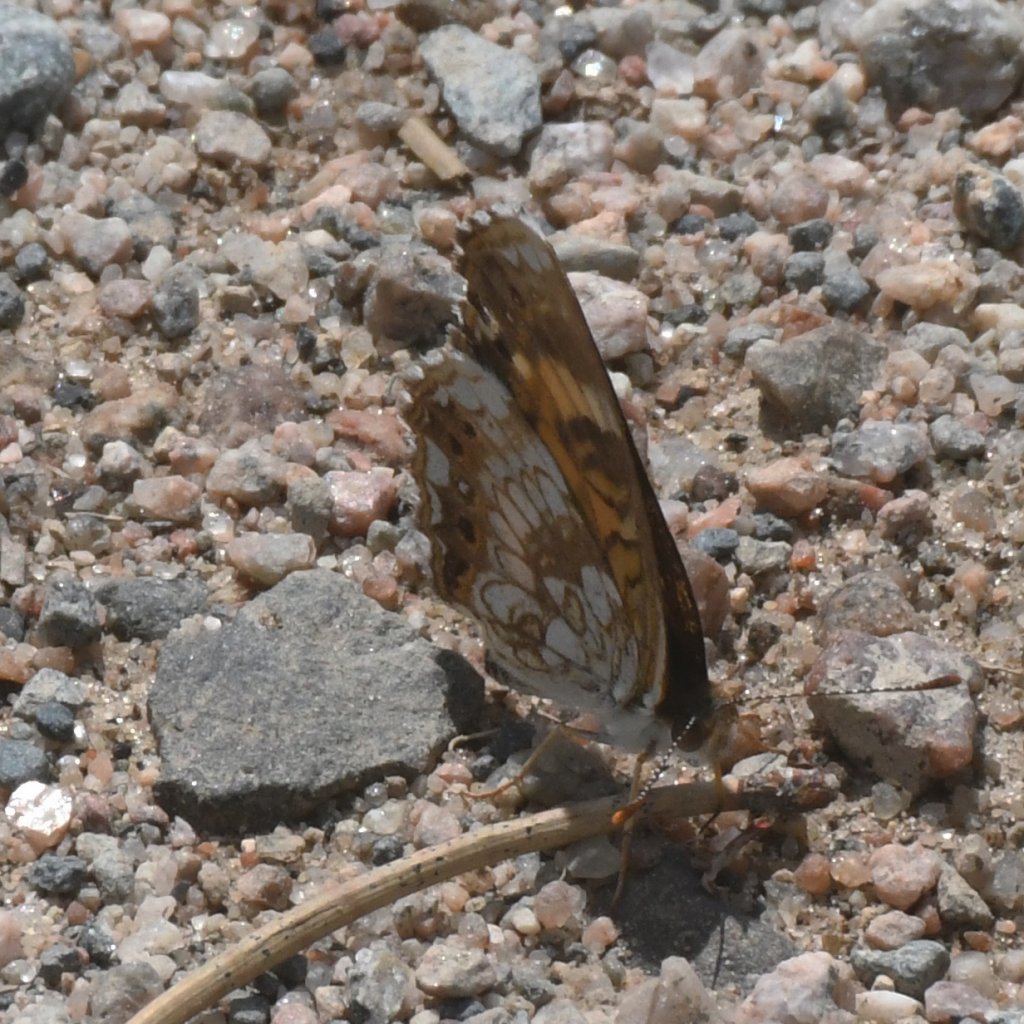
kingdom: Animalia
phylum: Arthropoda
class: Insecta
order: Lepidoptera
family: Nymphalidae
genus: Chlosyne
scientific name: Chlosyne nycteis
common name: Silvery Checkerspot
